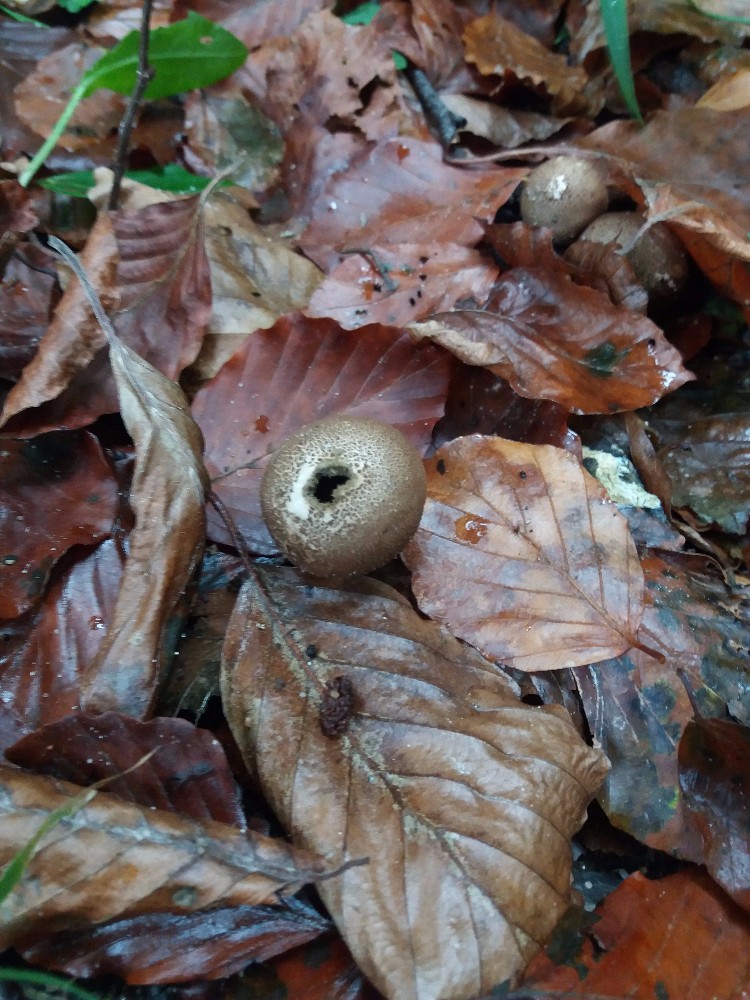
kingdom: Fungi
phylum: Basidiomycota
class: Agaricomycetes
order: Agaricales
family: Agaricaceae
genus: Lycoperdon
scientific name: Lycoperdon
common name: støvbold
